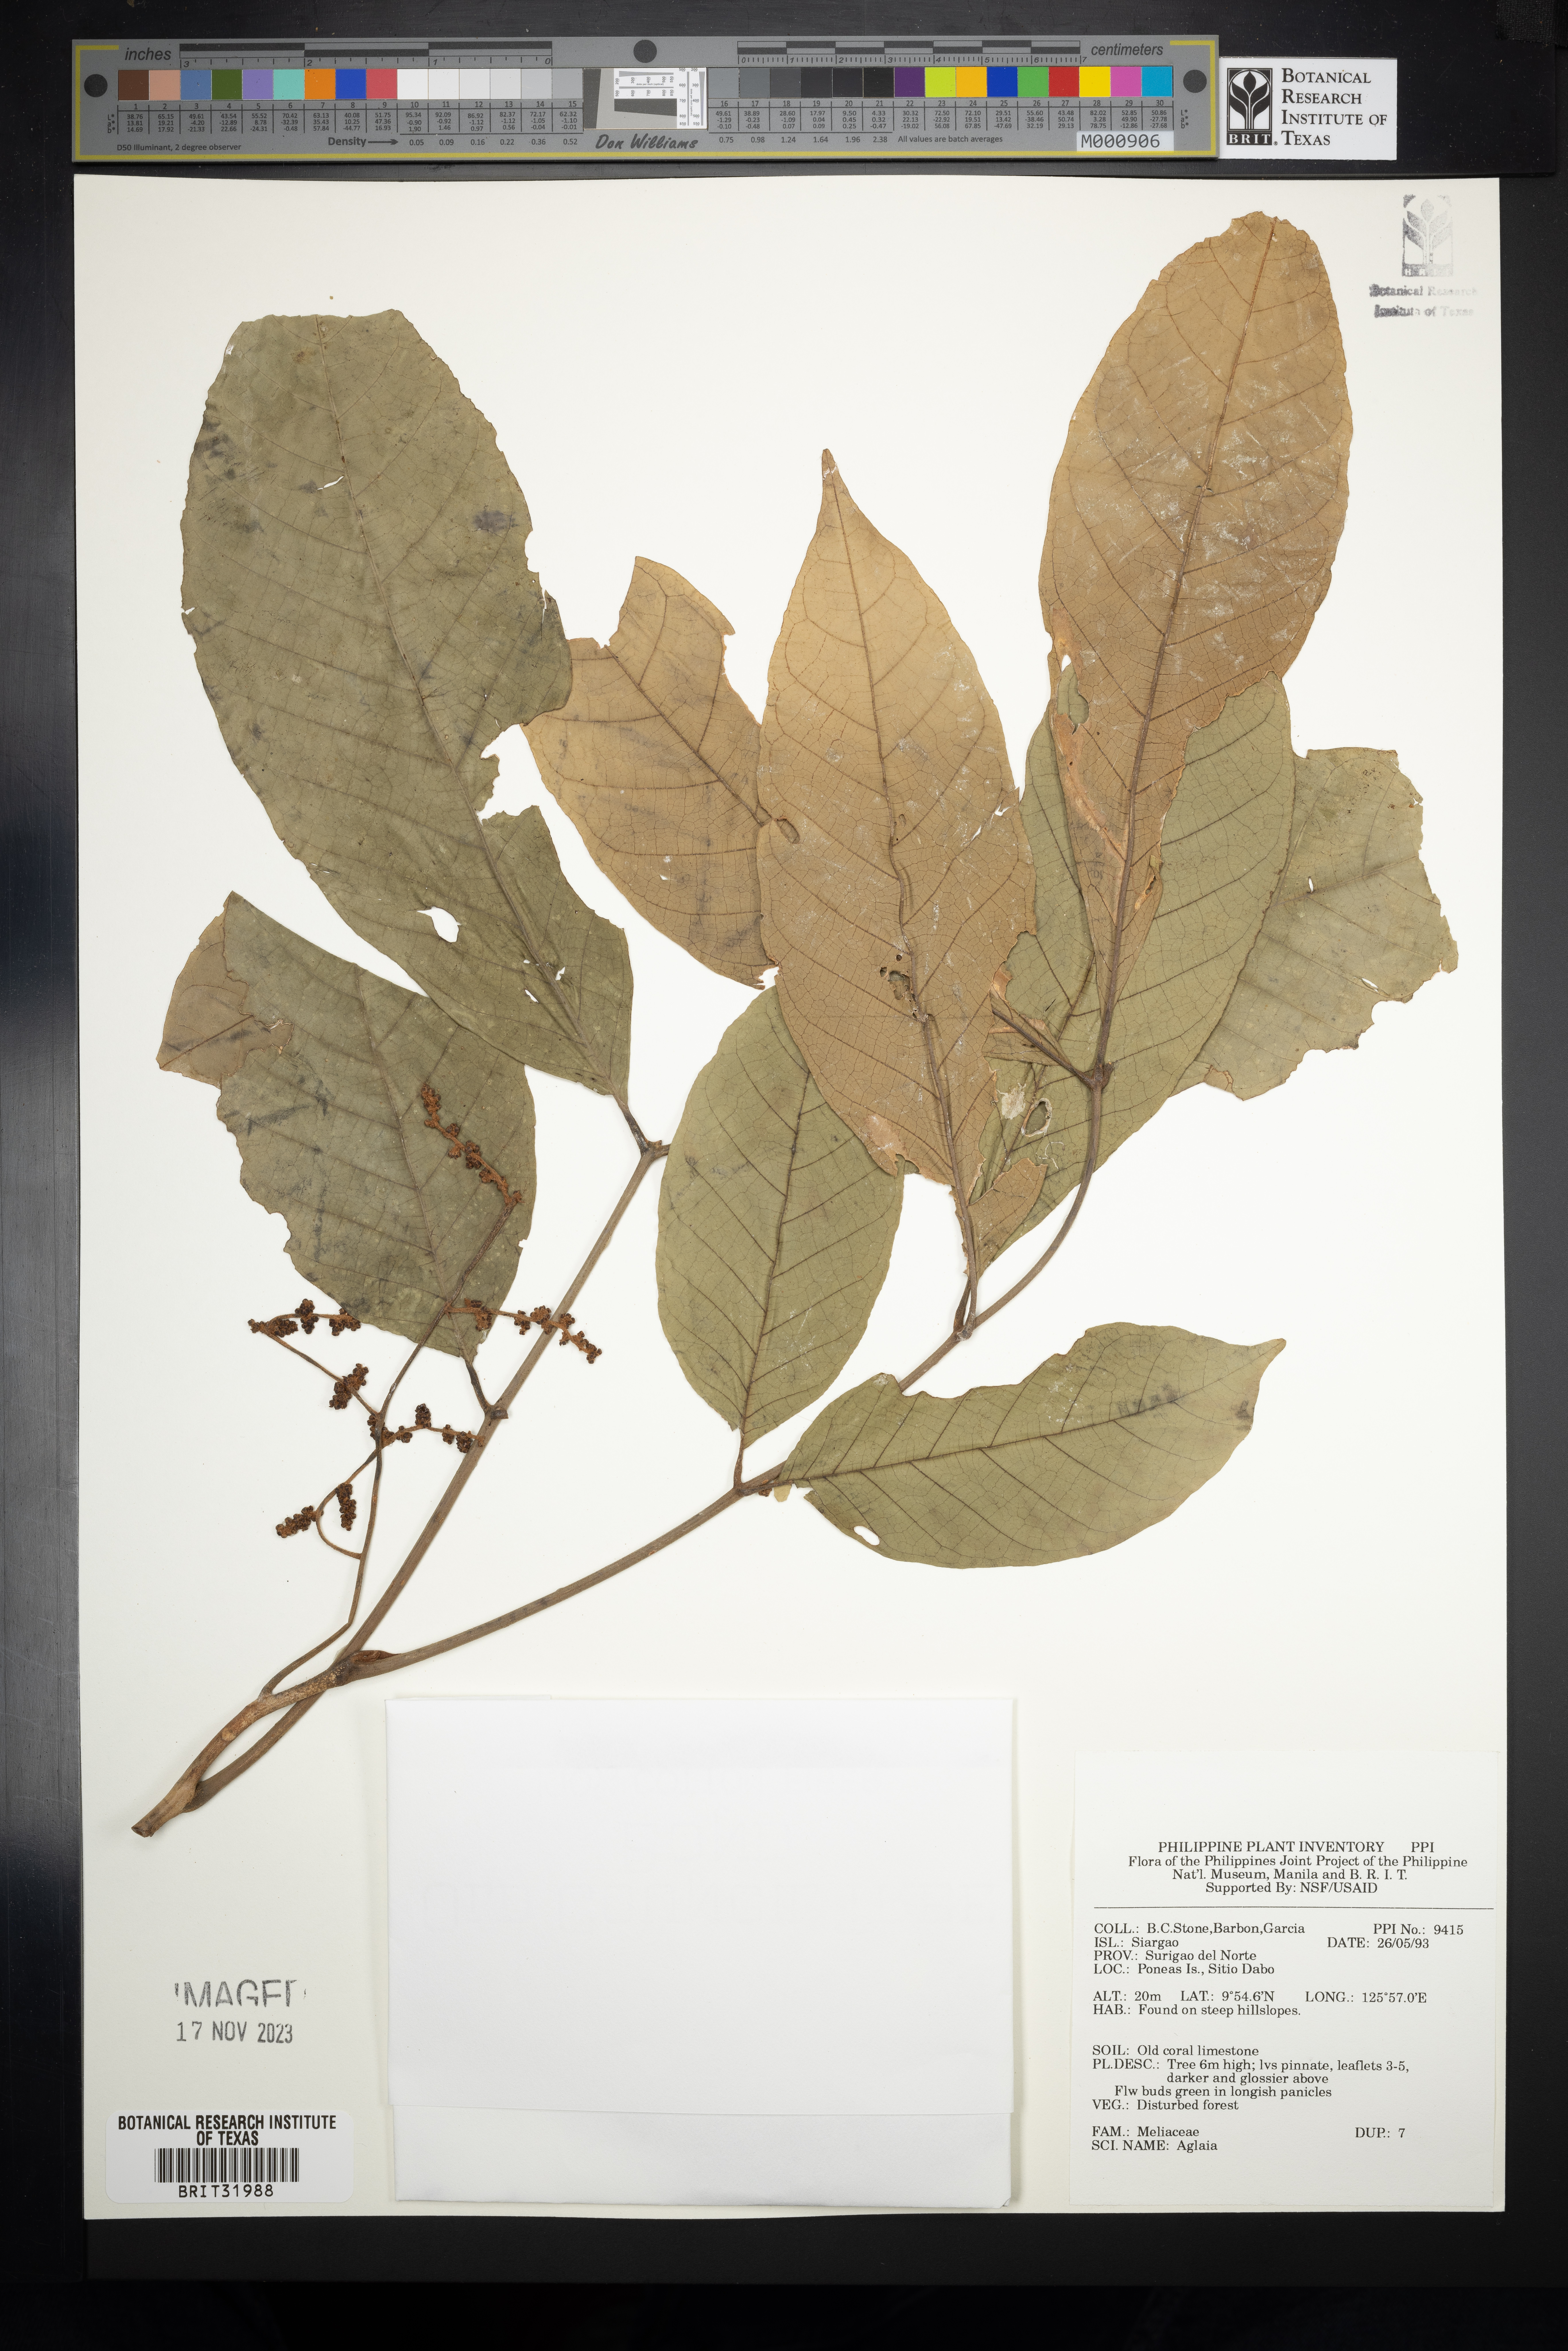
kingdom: Plantae
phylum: Tracheophyta
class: Magnoliopsida
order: Sapindales
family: Meliaceae
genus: Aglaia
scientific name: Aglaia
